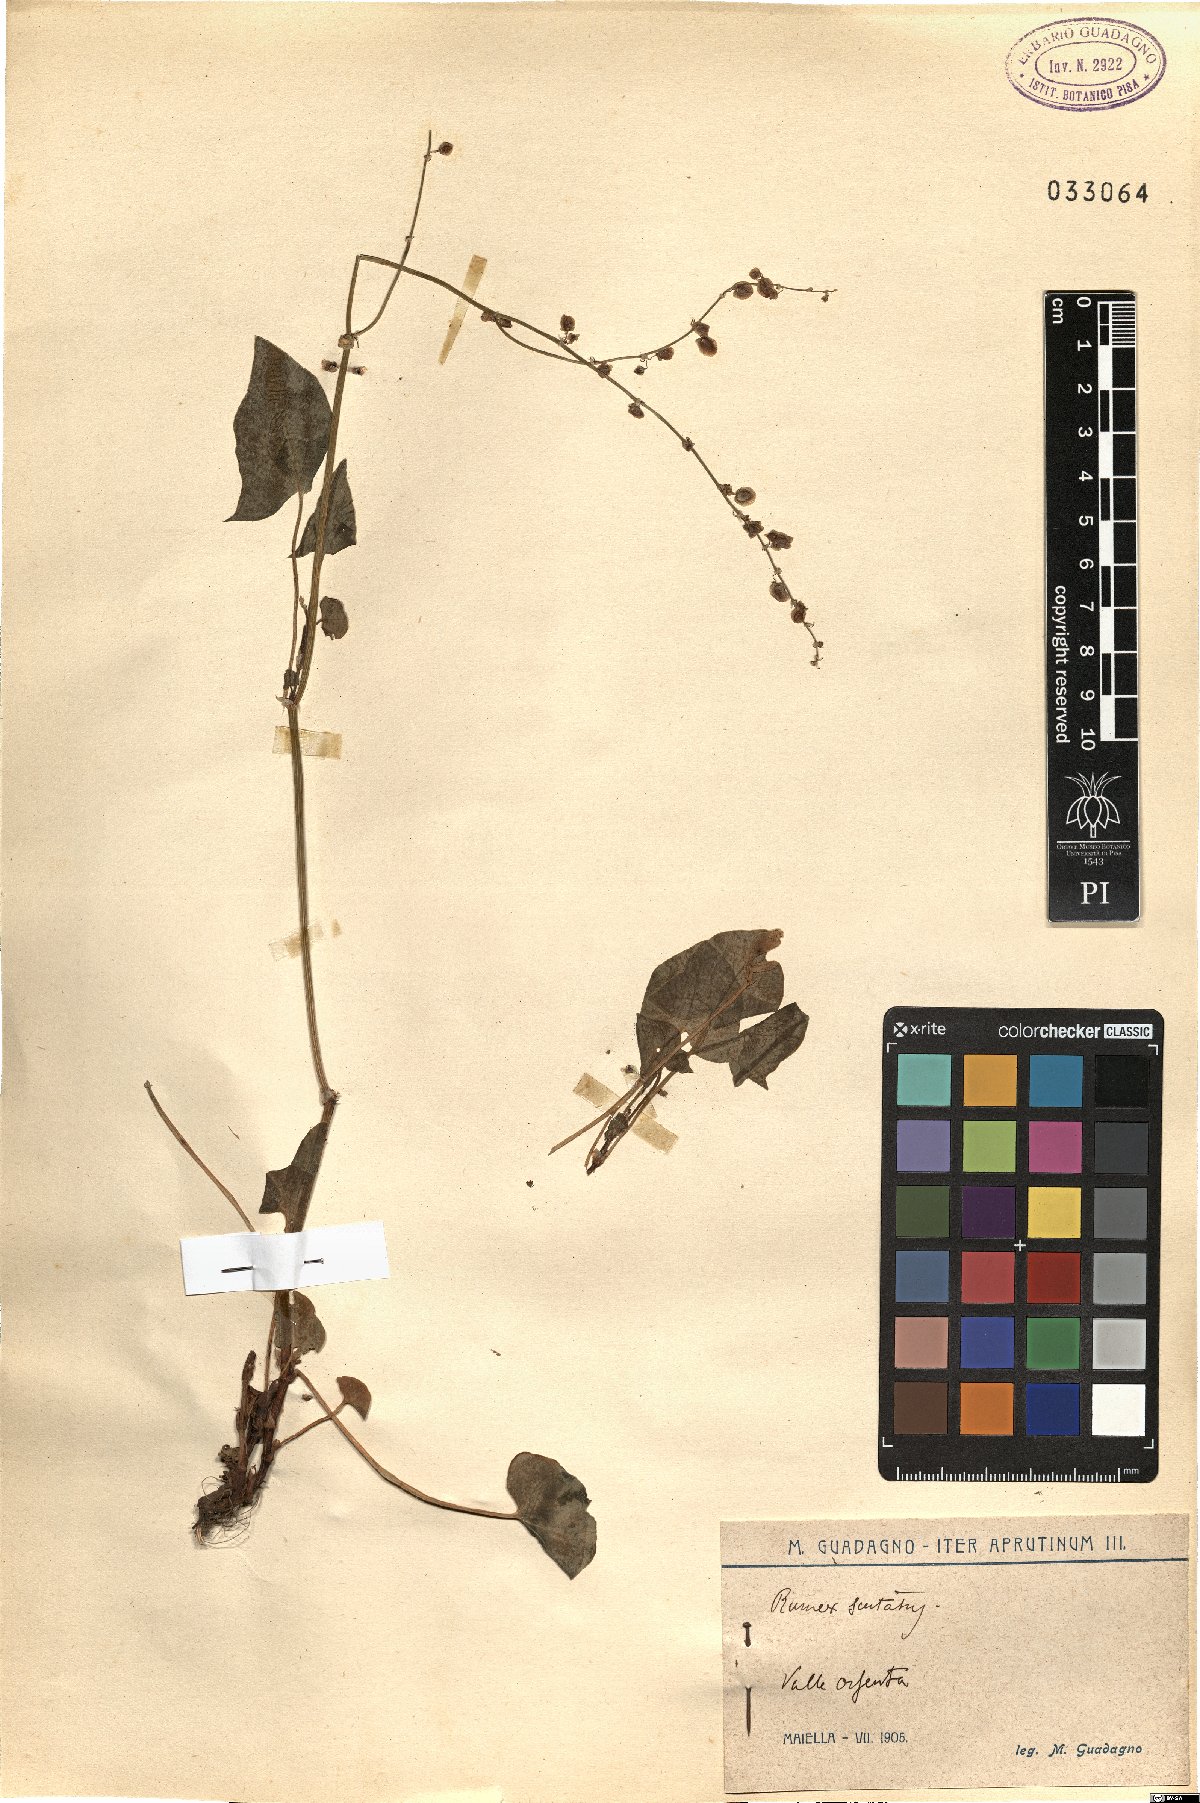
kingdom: Plantae
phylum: Tracheophyta
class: Magnoliopsida
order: Caryophyllales
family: Polygonaceae
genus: Rumex
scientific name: Rumex scutatus
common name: French sorrel
